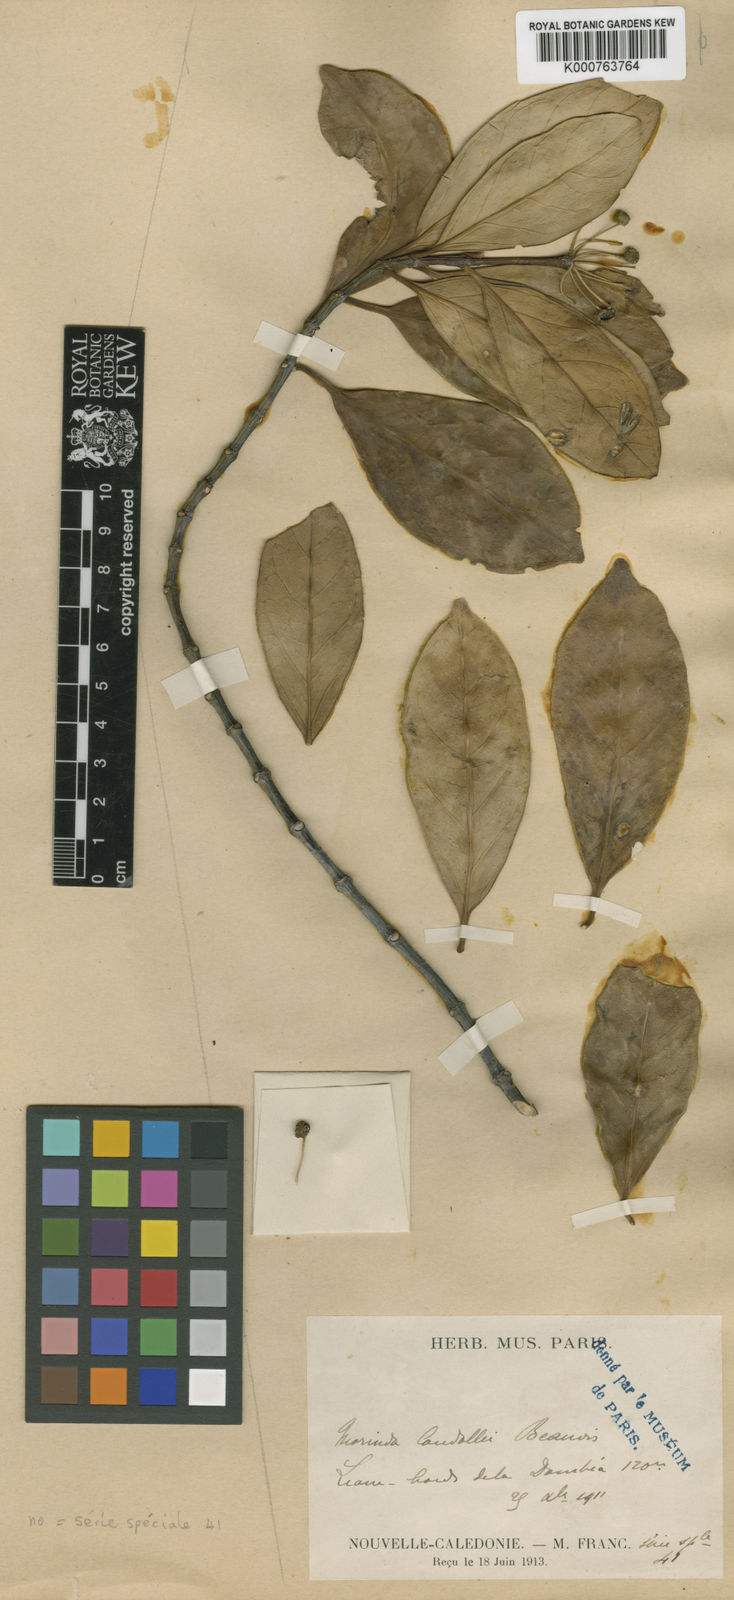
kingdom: Plantae
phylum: Tracheophyta
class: Magnoliopsida
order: Gentianales
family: Rubiaceae
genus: Gynochthodes
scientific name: Gynochthodes candollei
